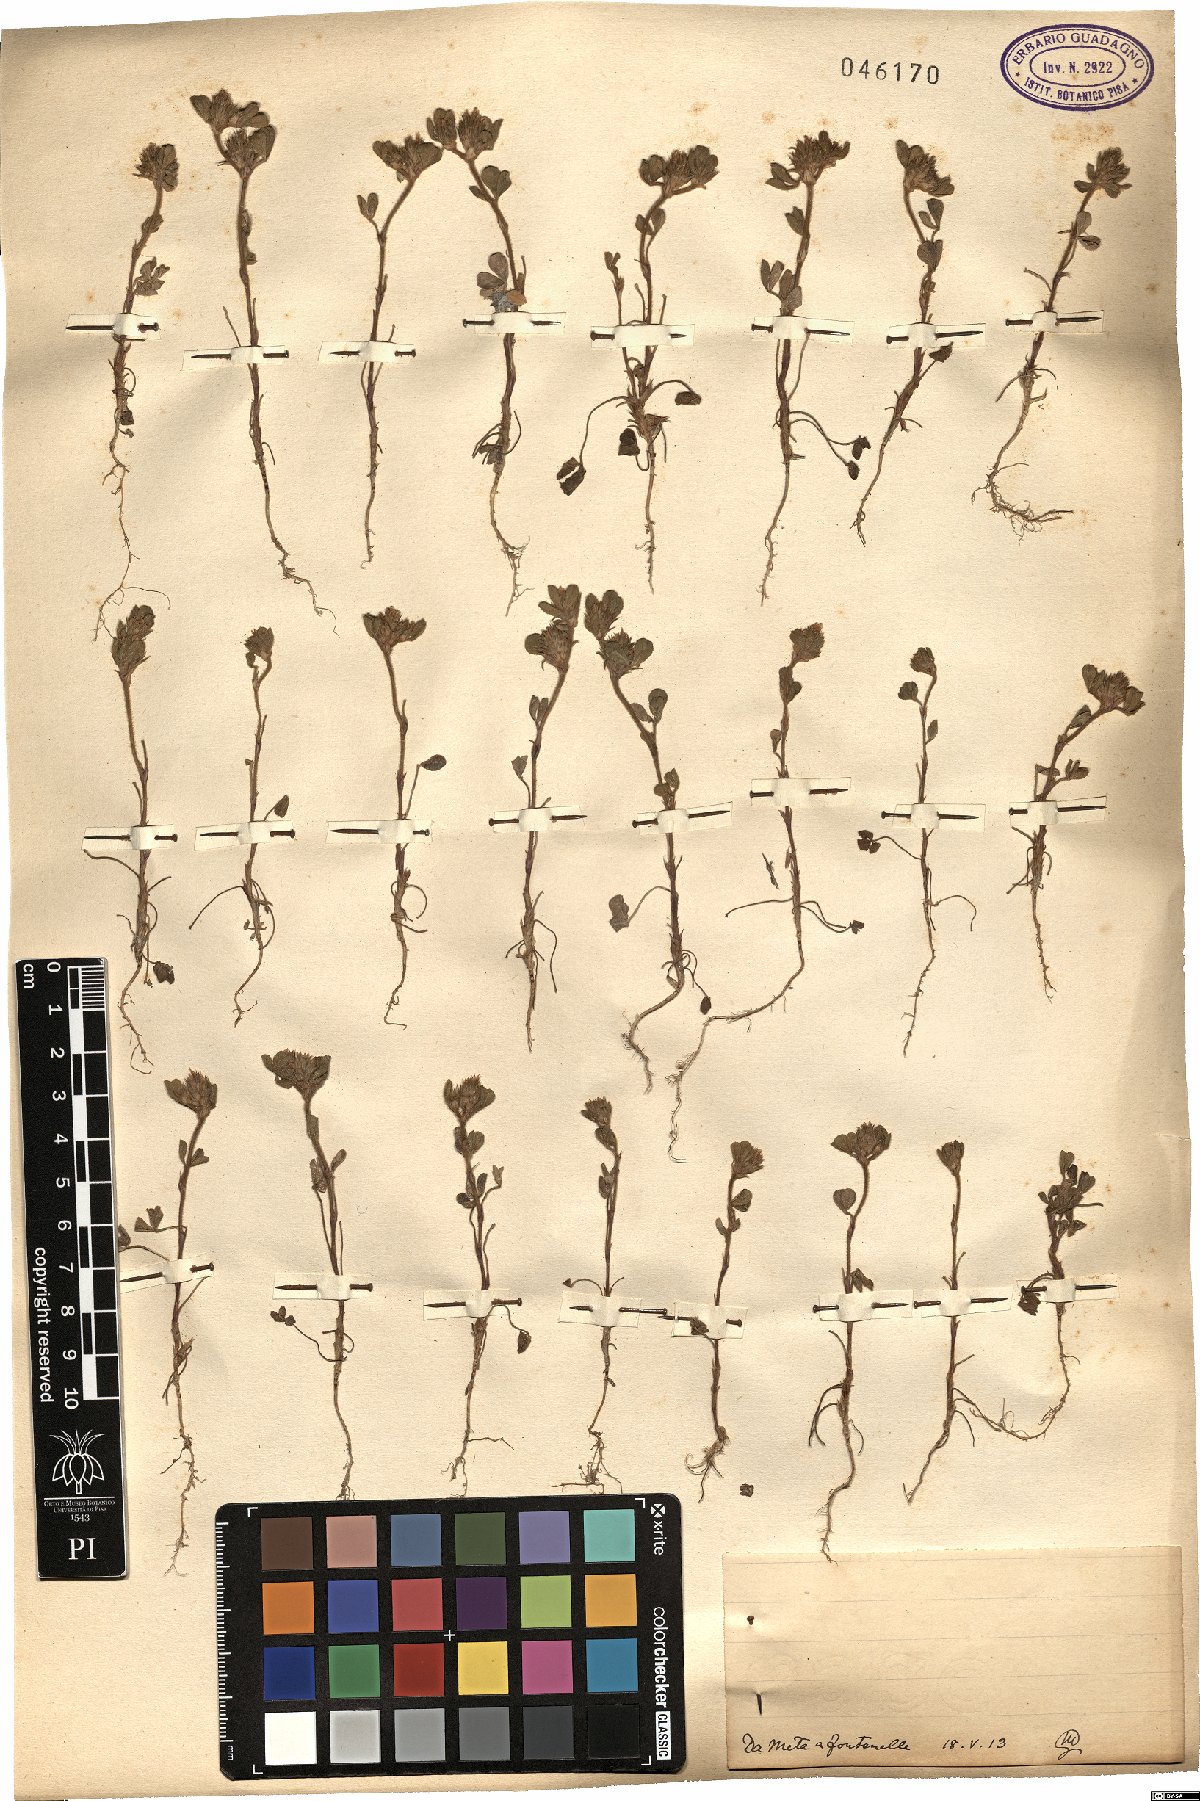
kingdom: Plantae
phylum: Tracheophyta
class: Magnoliopsida
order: Fabales
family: Fabaceae
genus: Trifolium
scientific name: Trifolium
